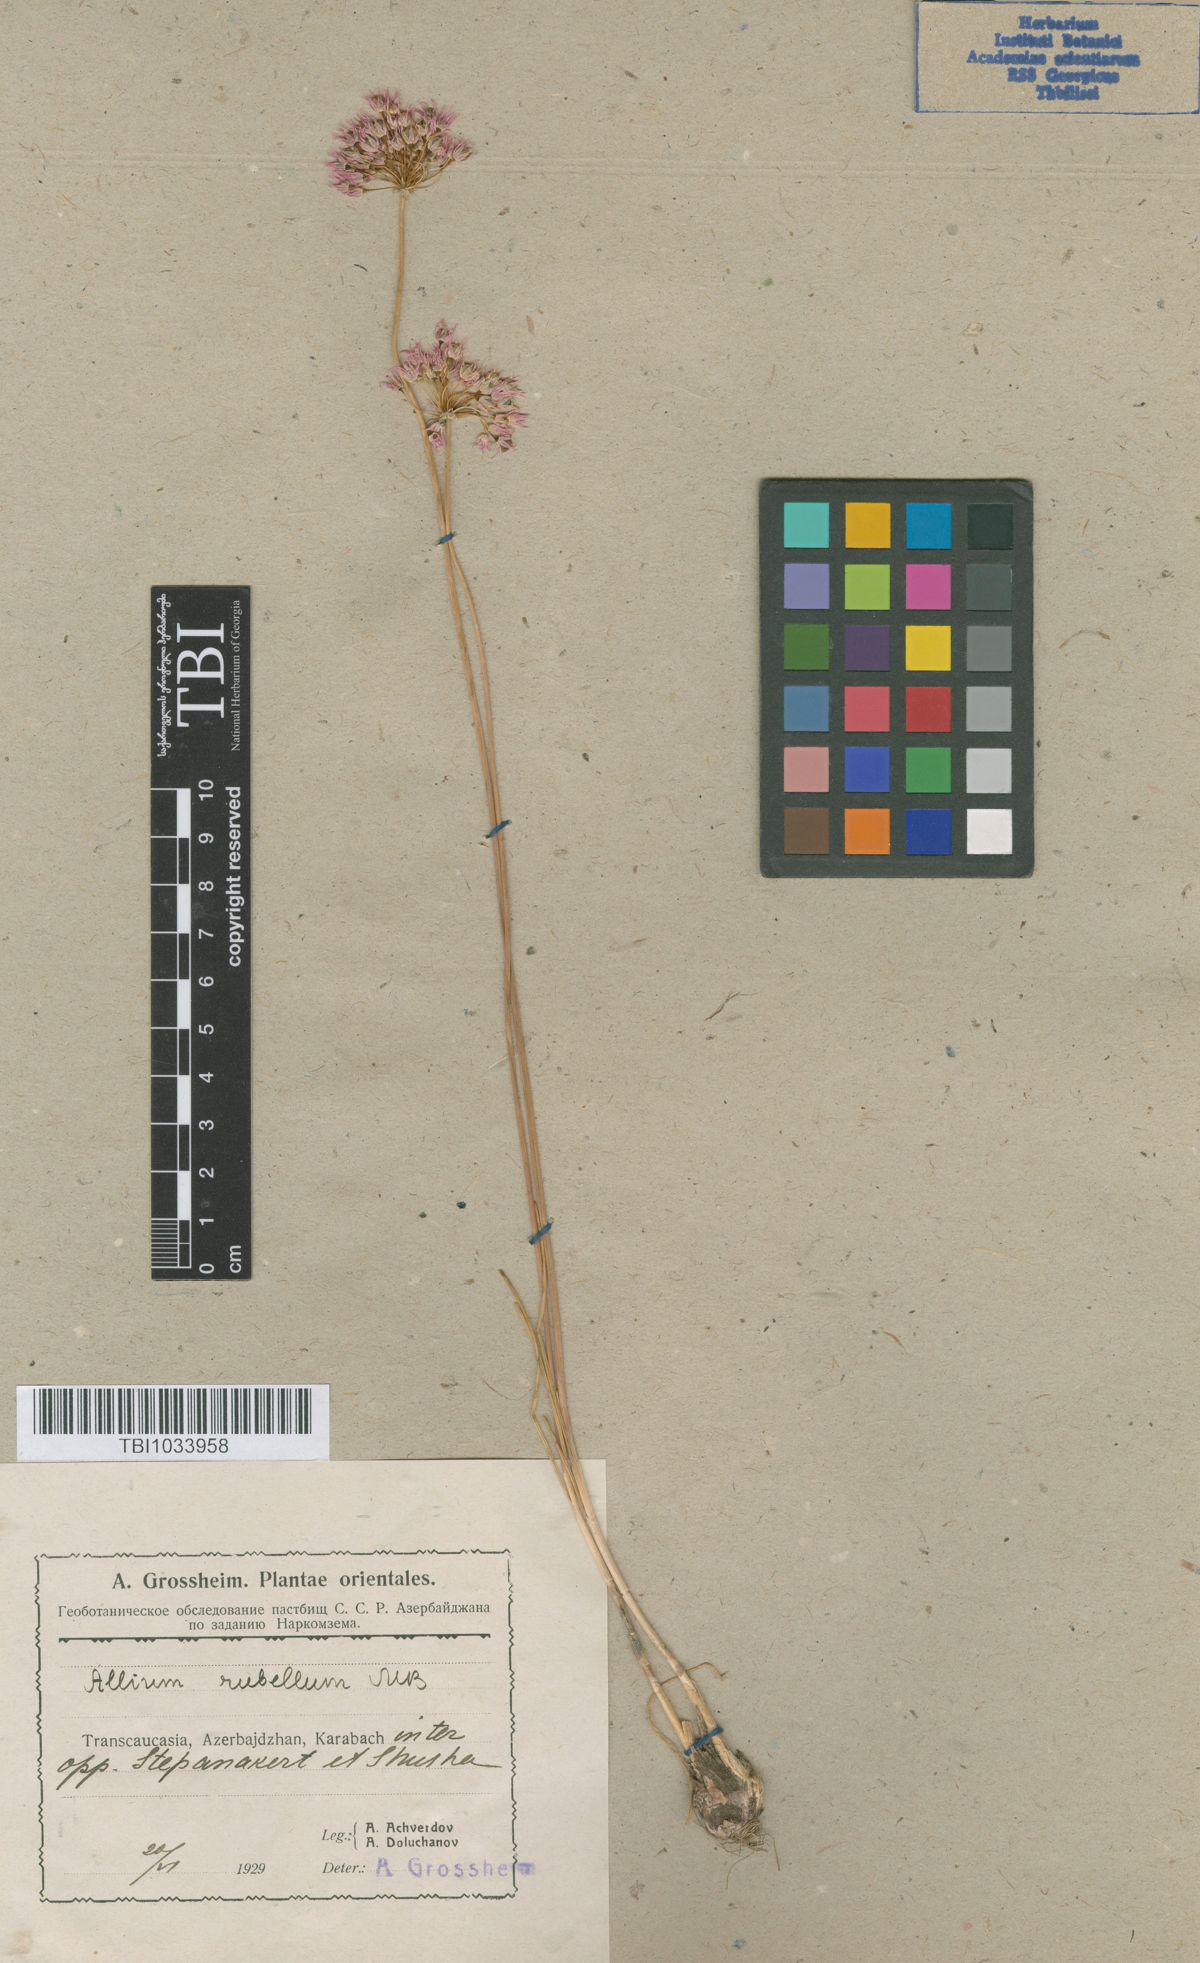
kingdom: Plantae
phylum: Tracheophyta
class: Liliopsida
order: Asparagales
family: Amaryllidaceae
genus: Allium
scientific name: Allium rubellum
